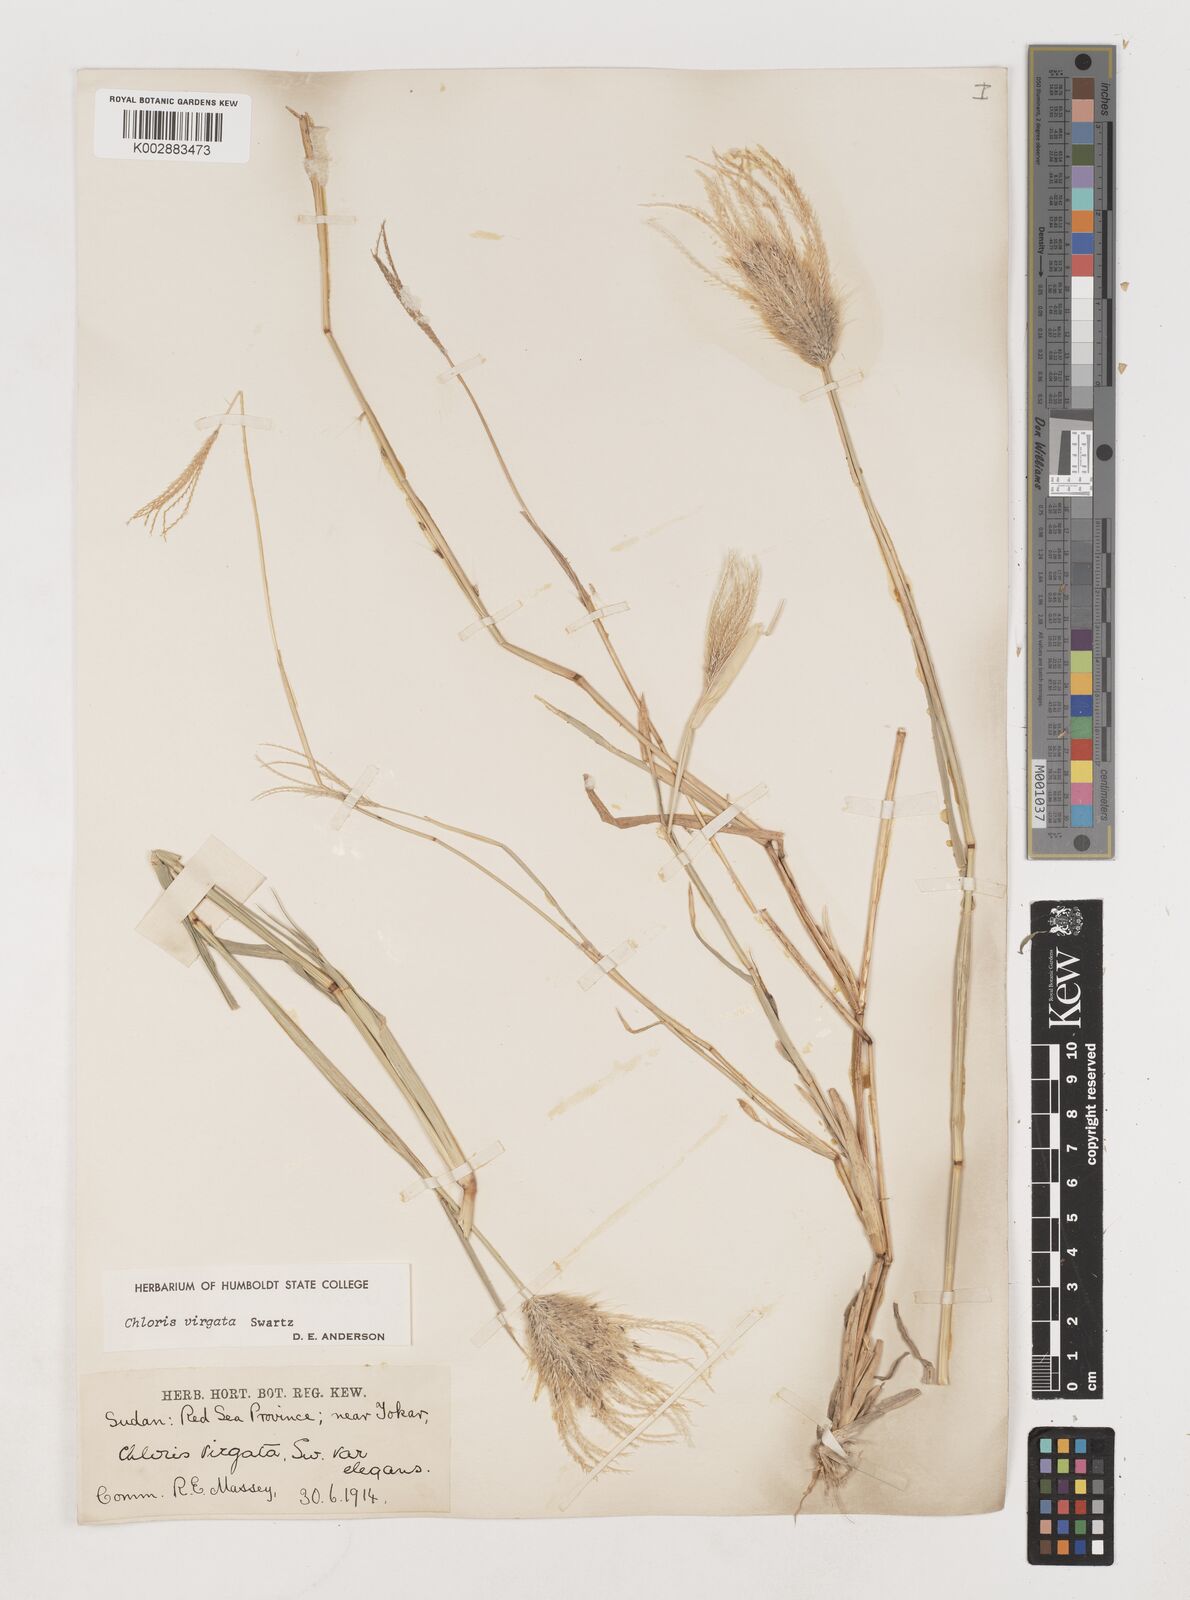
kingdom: Plantae
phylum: Tracheophyta
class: Liliopsida
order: Poales
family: Poaceae
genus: Chloris
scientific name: Chloris virgata
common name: Feathery rhodes-grass
